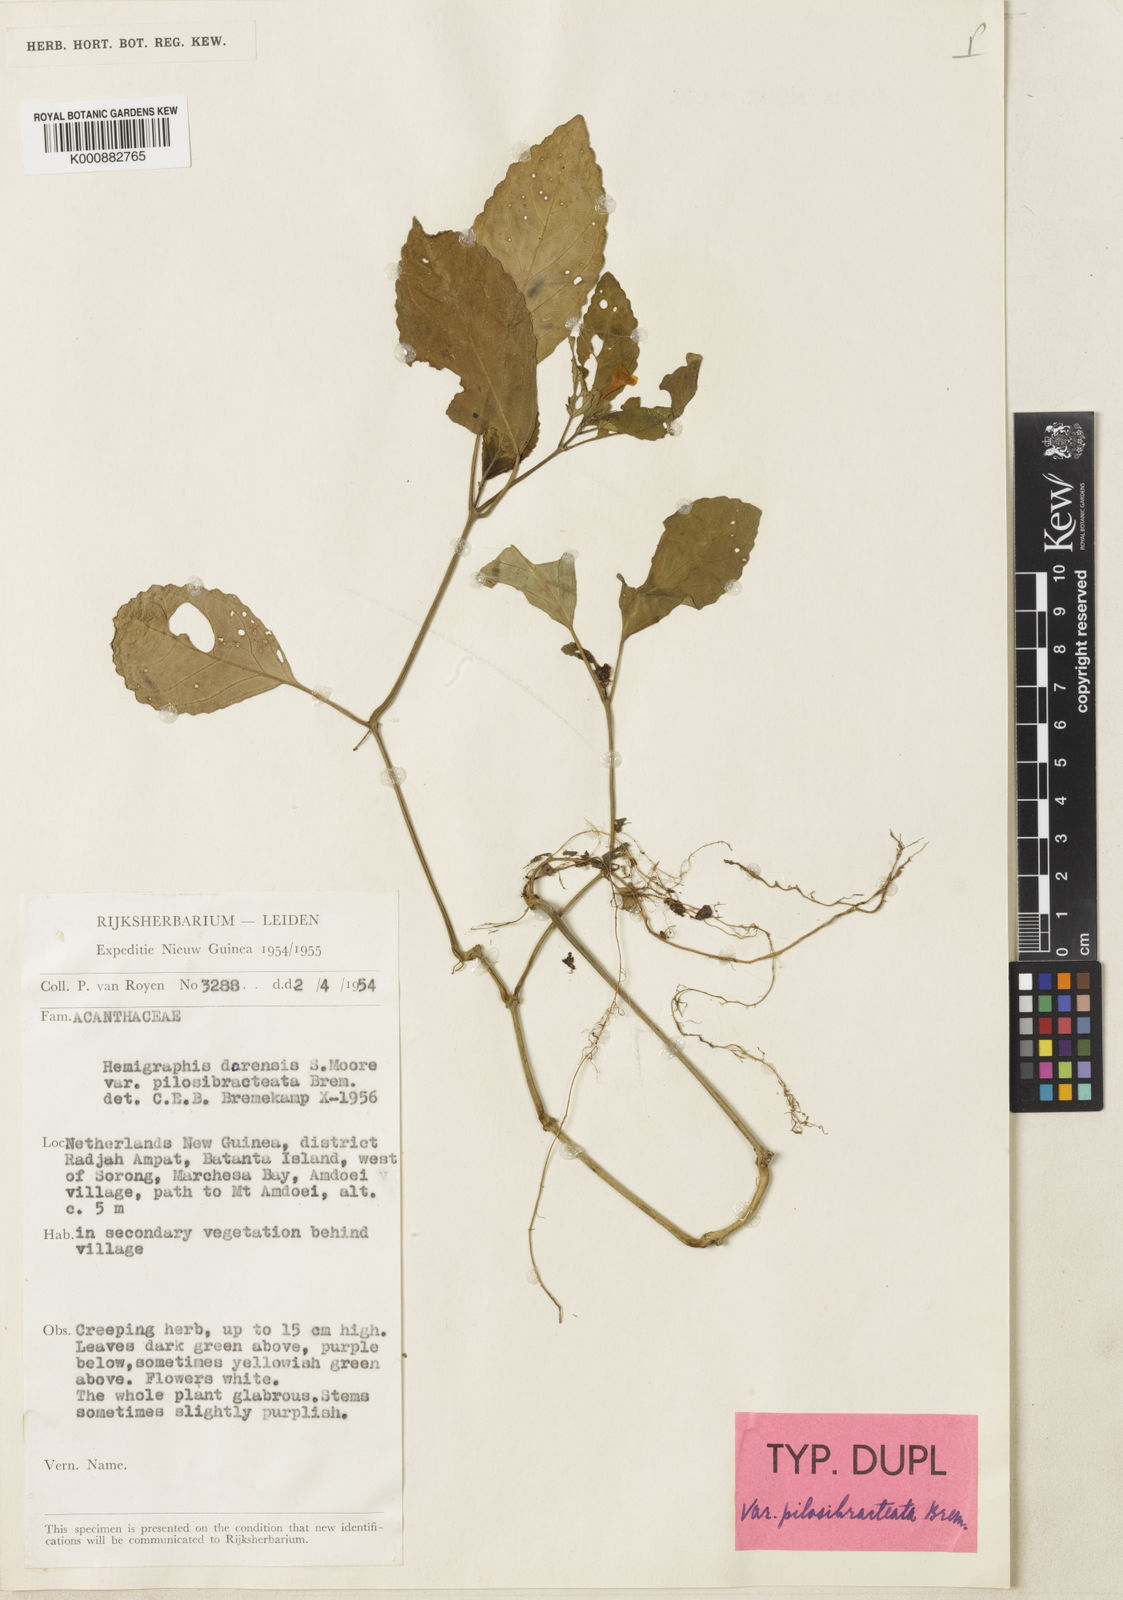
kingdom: Plantae
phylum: Tracheophyta
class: Magnoliopsida
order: Lamiales
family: Acanthaceae
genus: Hemigraphis
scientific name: Hemigraphis dorensis
